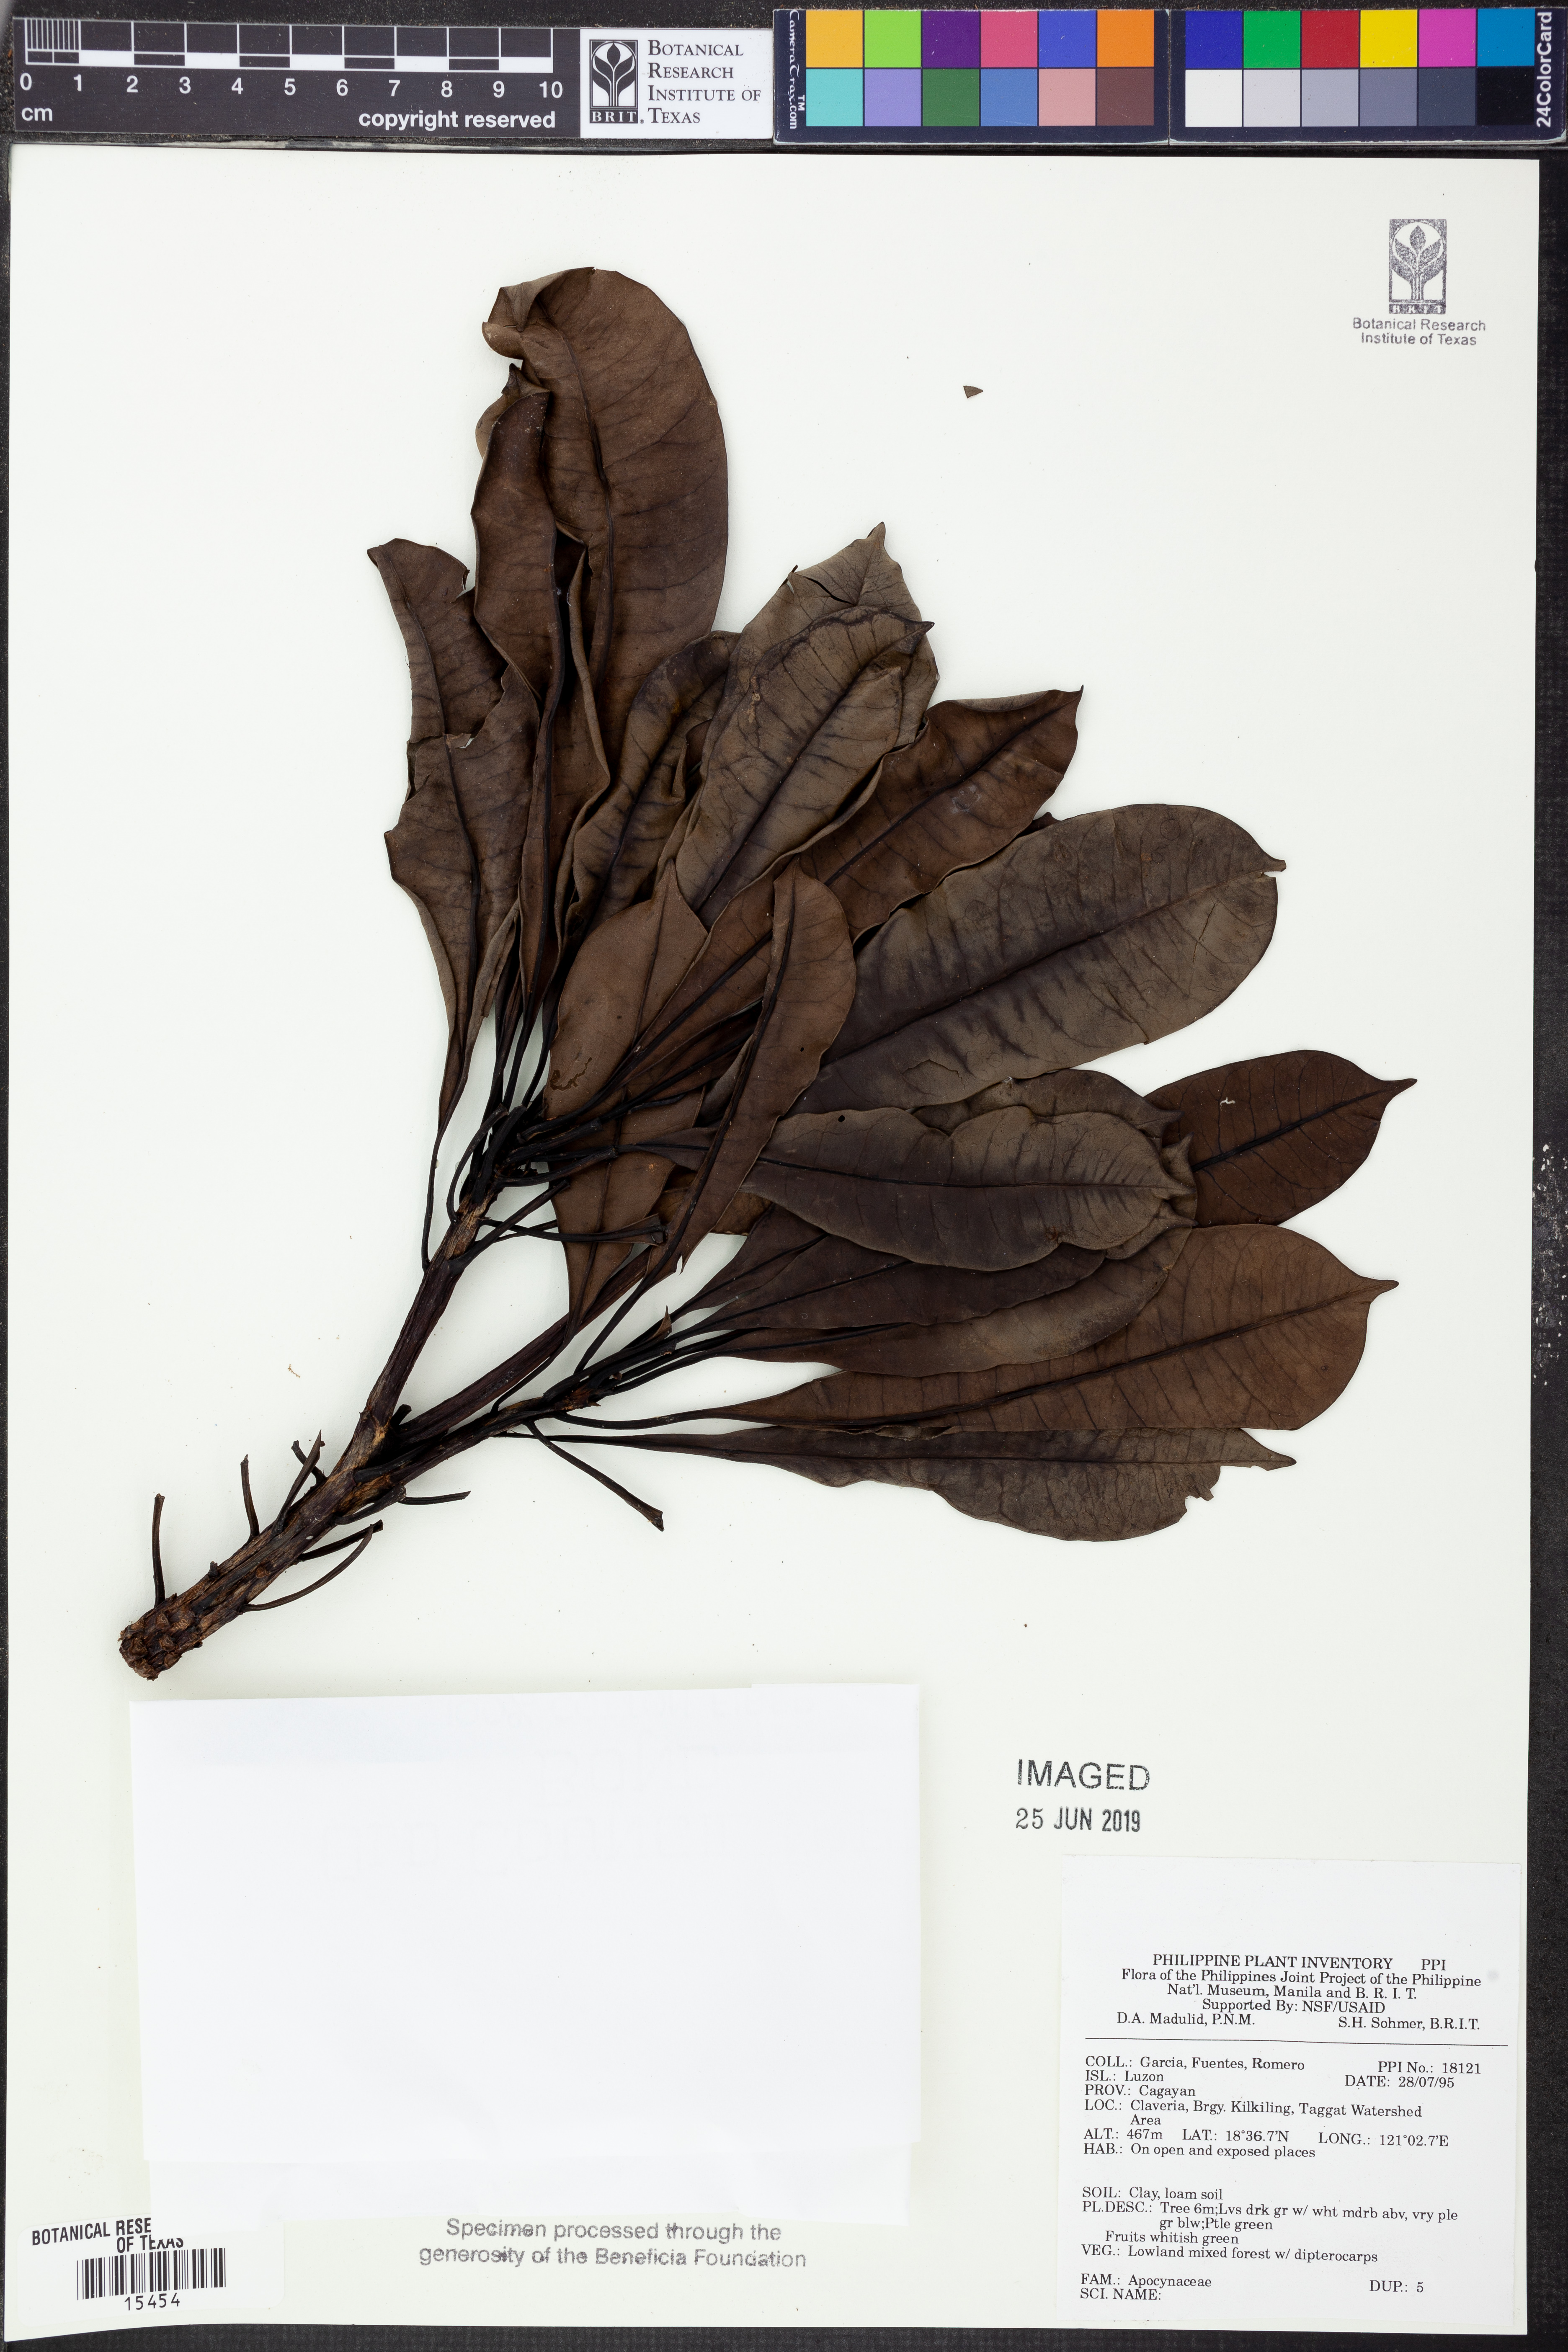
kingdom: Plantae
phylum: Tracheophyta
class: Magnoliopsida
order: Gentianales
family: Apocynaceae
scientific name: Apocynaceae
